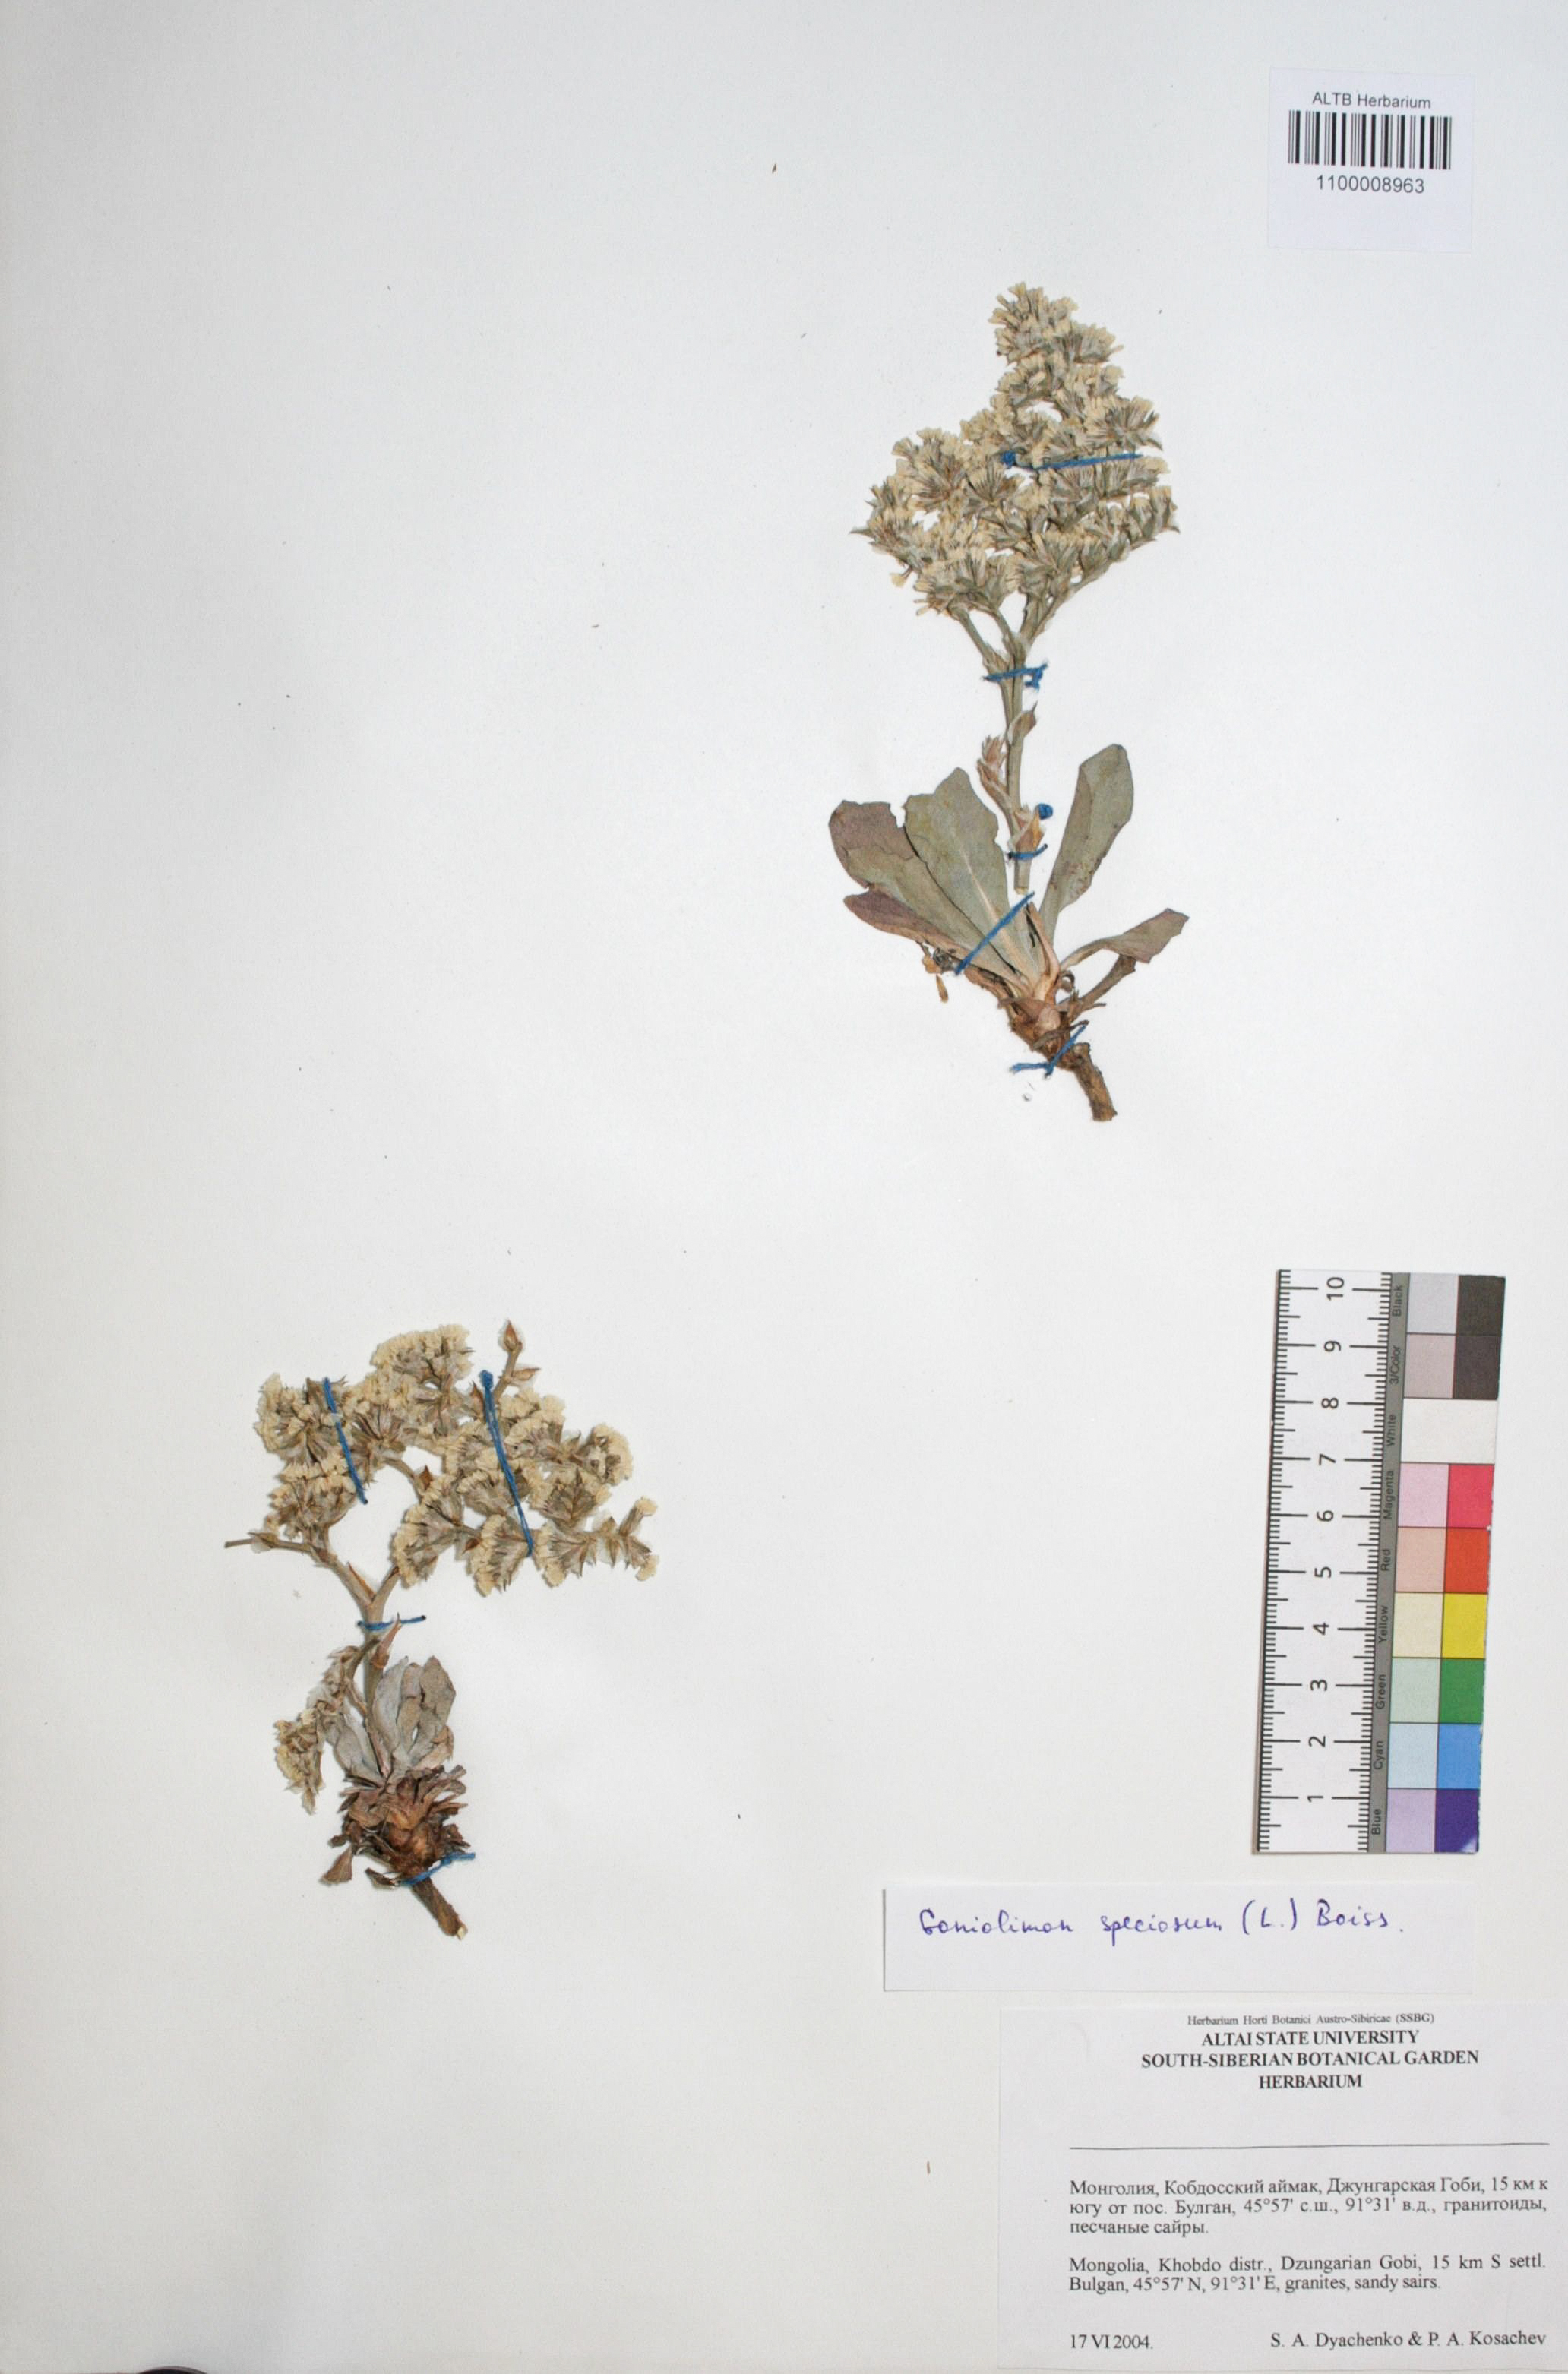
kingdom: Plantae
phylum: Tracheophyta
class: Magnoliopsida
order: Caryophyllales
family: Plumbaginaceae
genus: Goniolimon
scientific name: Goniolimon speciosum
